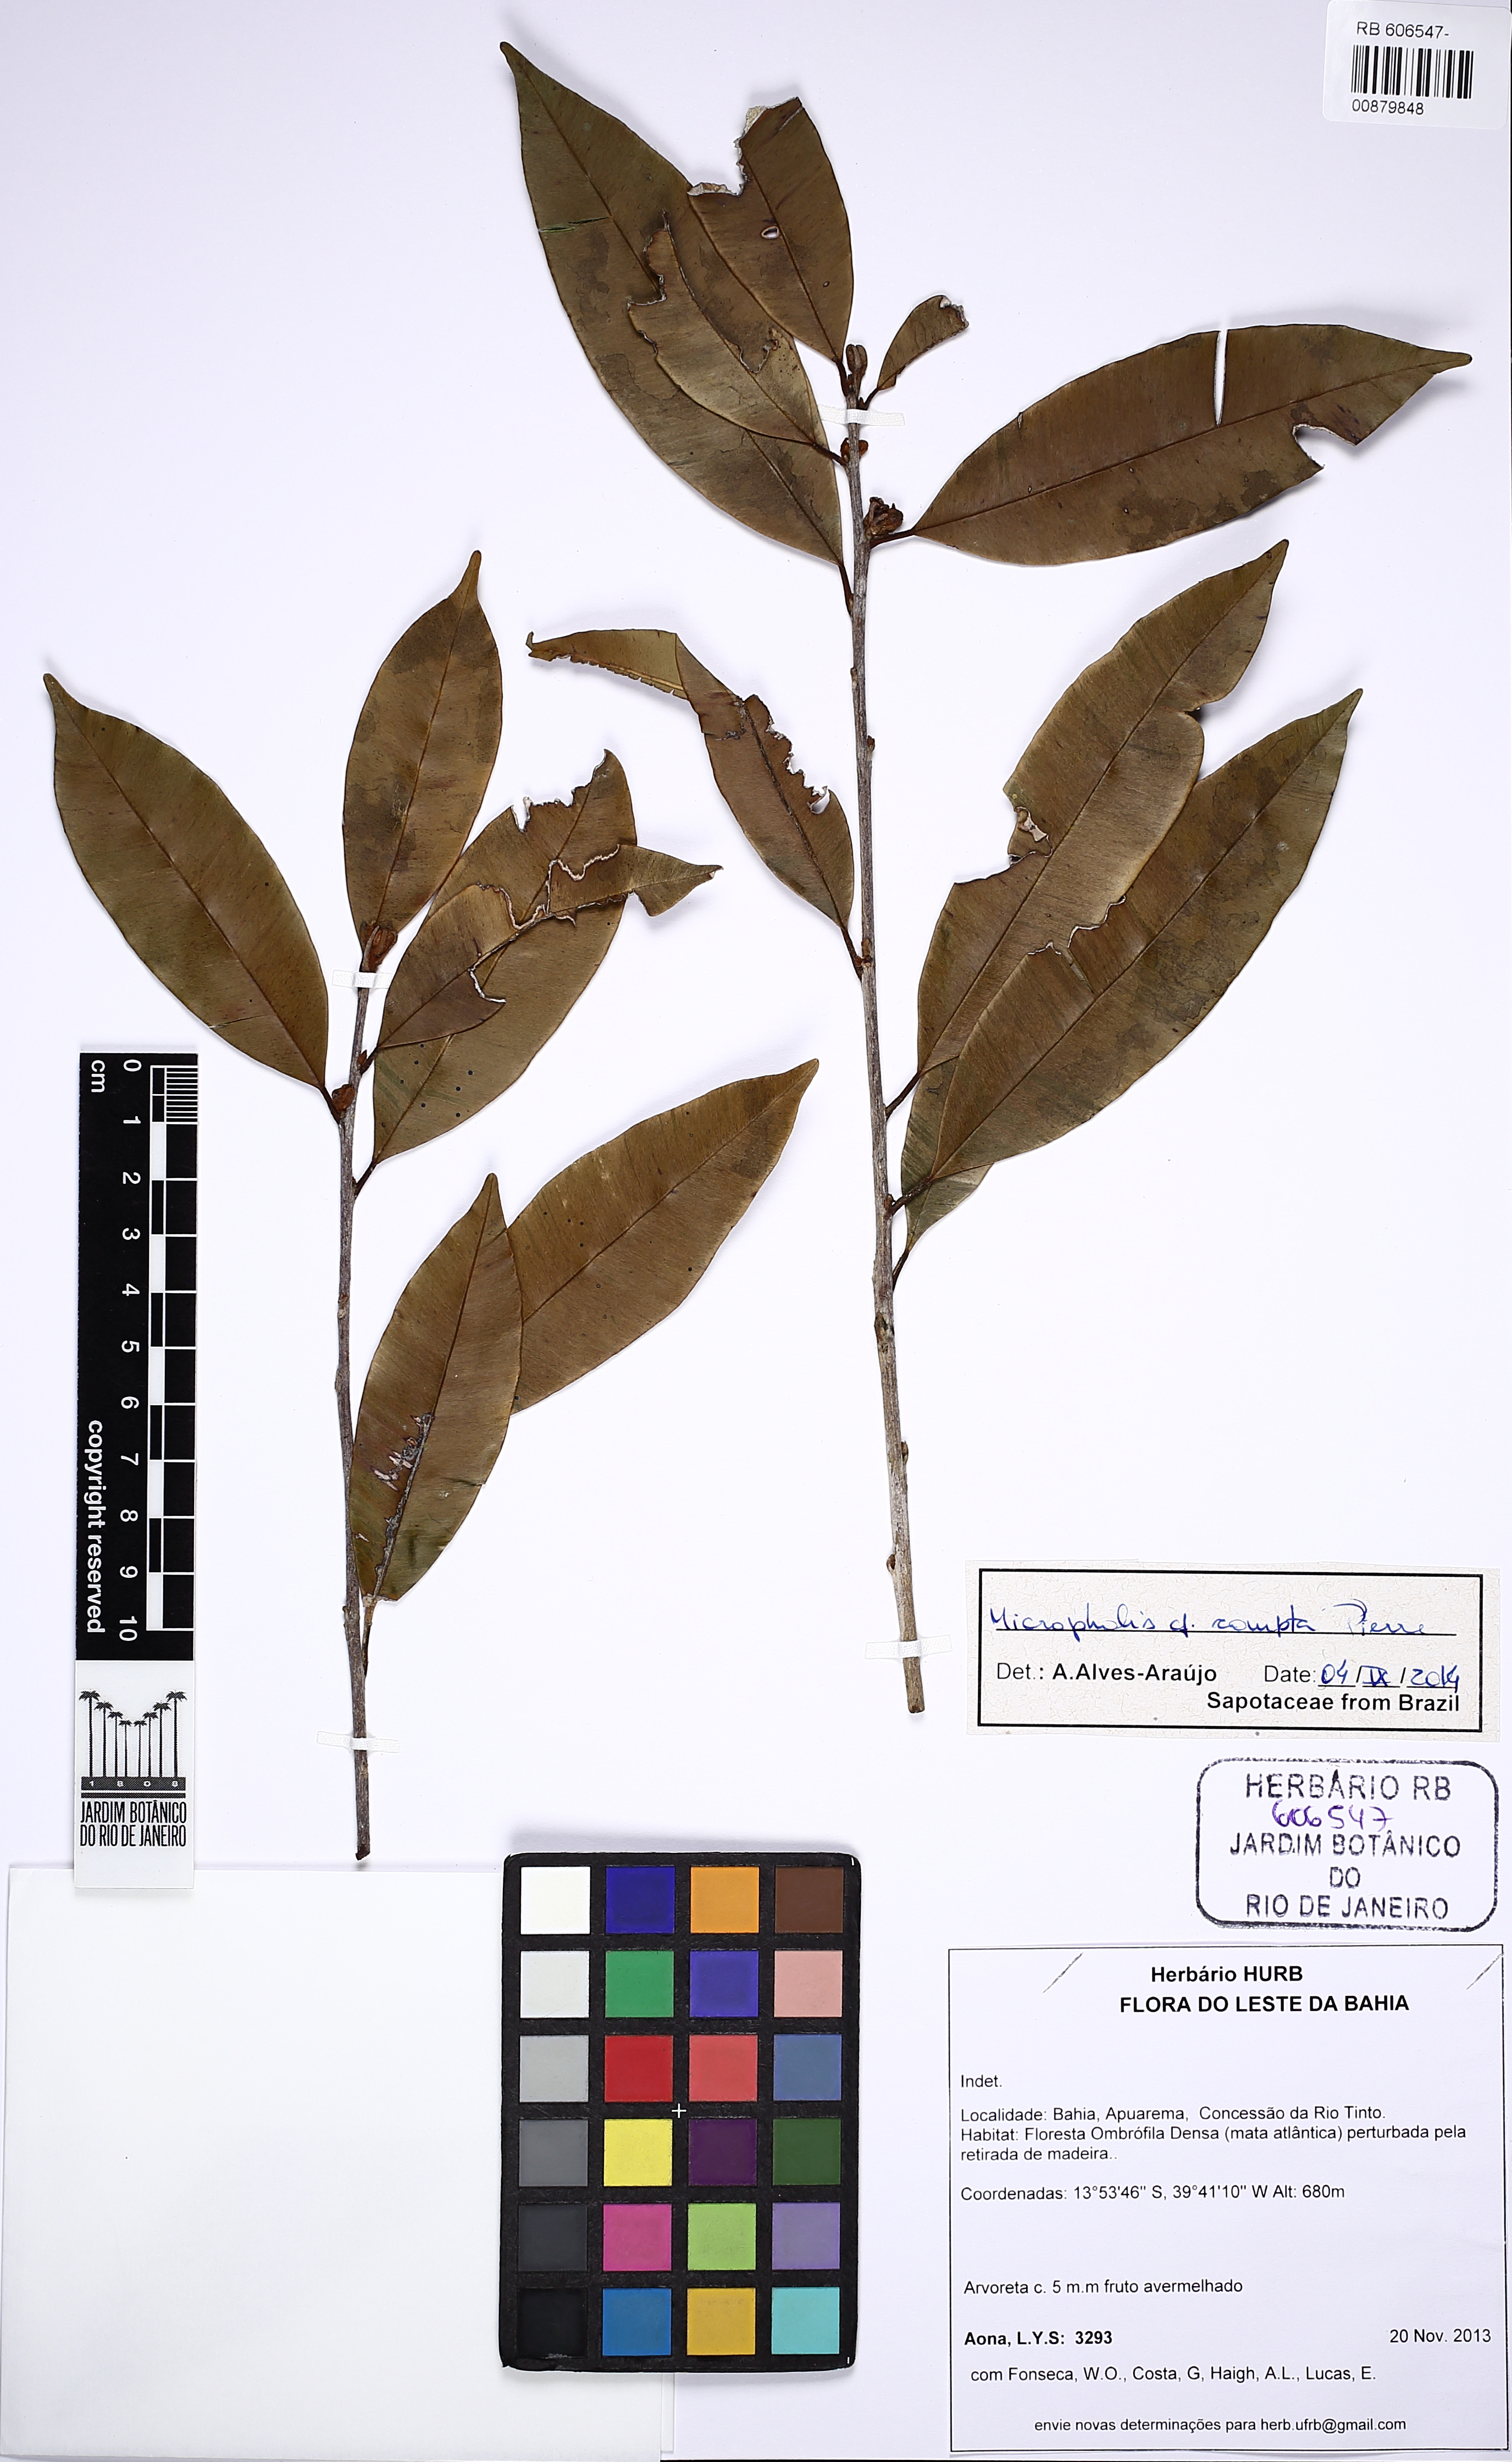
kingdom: Plantae
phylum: Tracheophyta
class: Magnoliopsida
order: Ericales
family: Sapotaceae
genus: Micropholis
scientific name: Micropholis gardneriana
